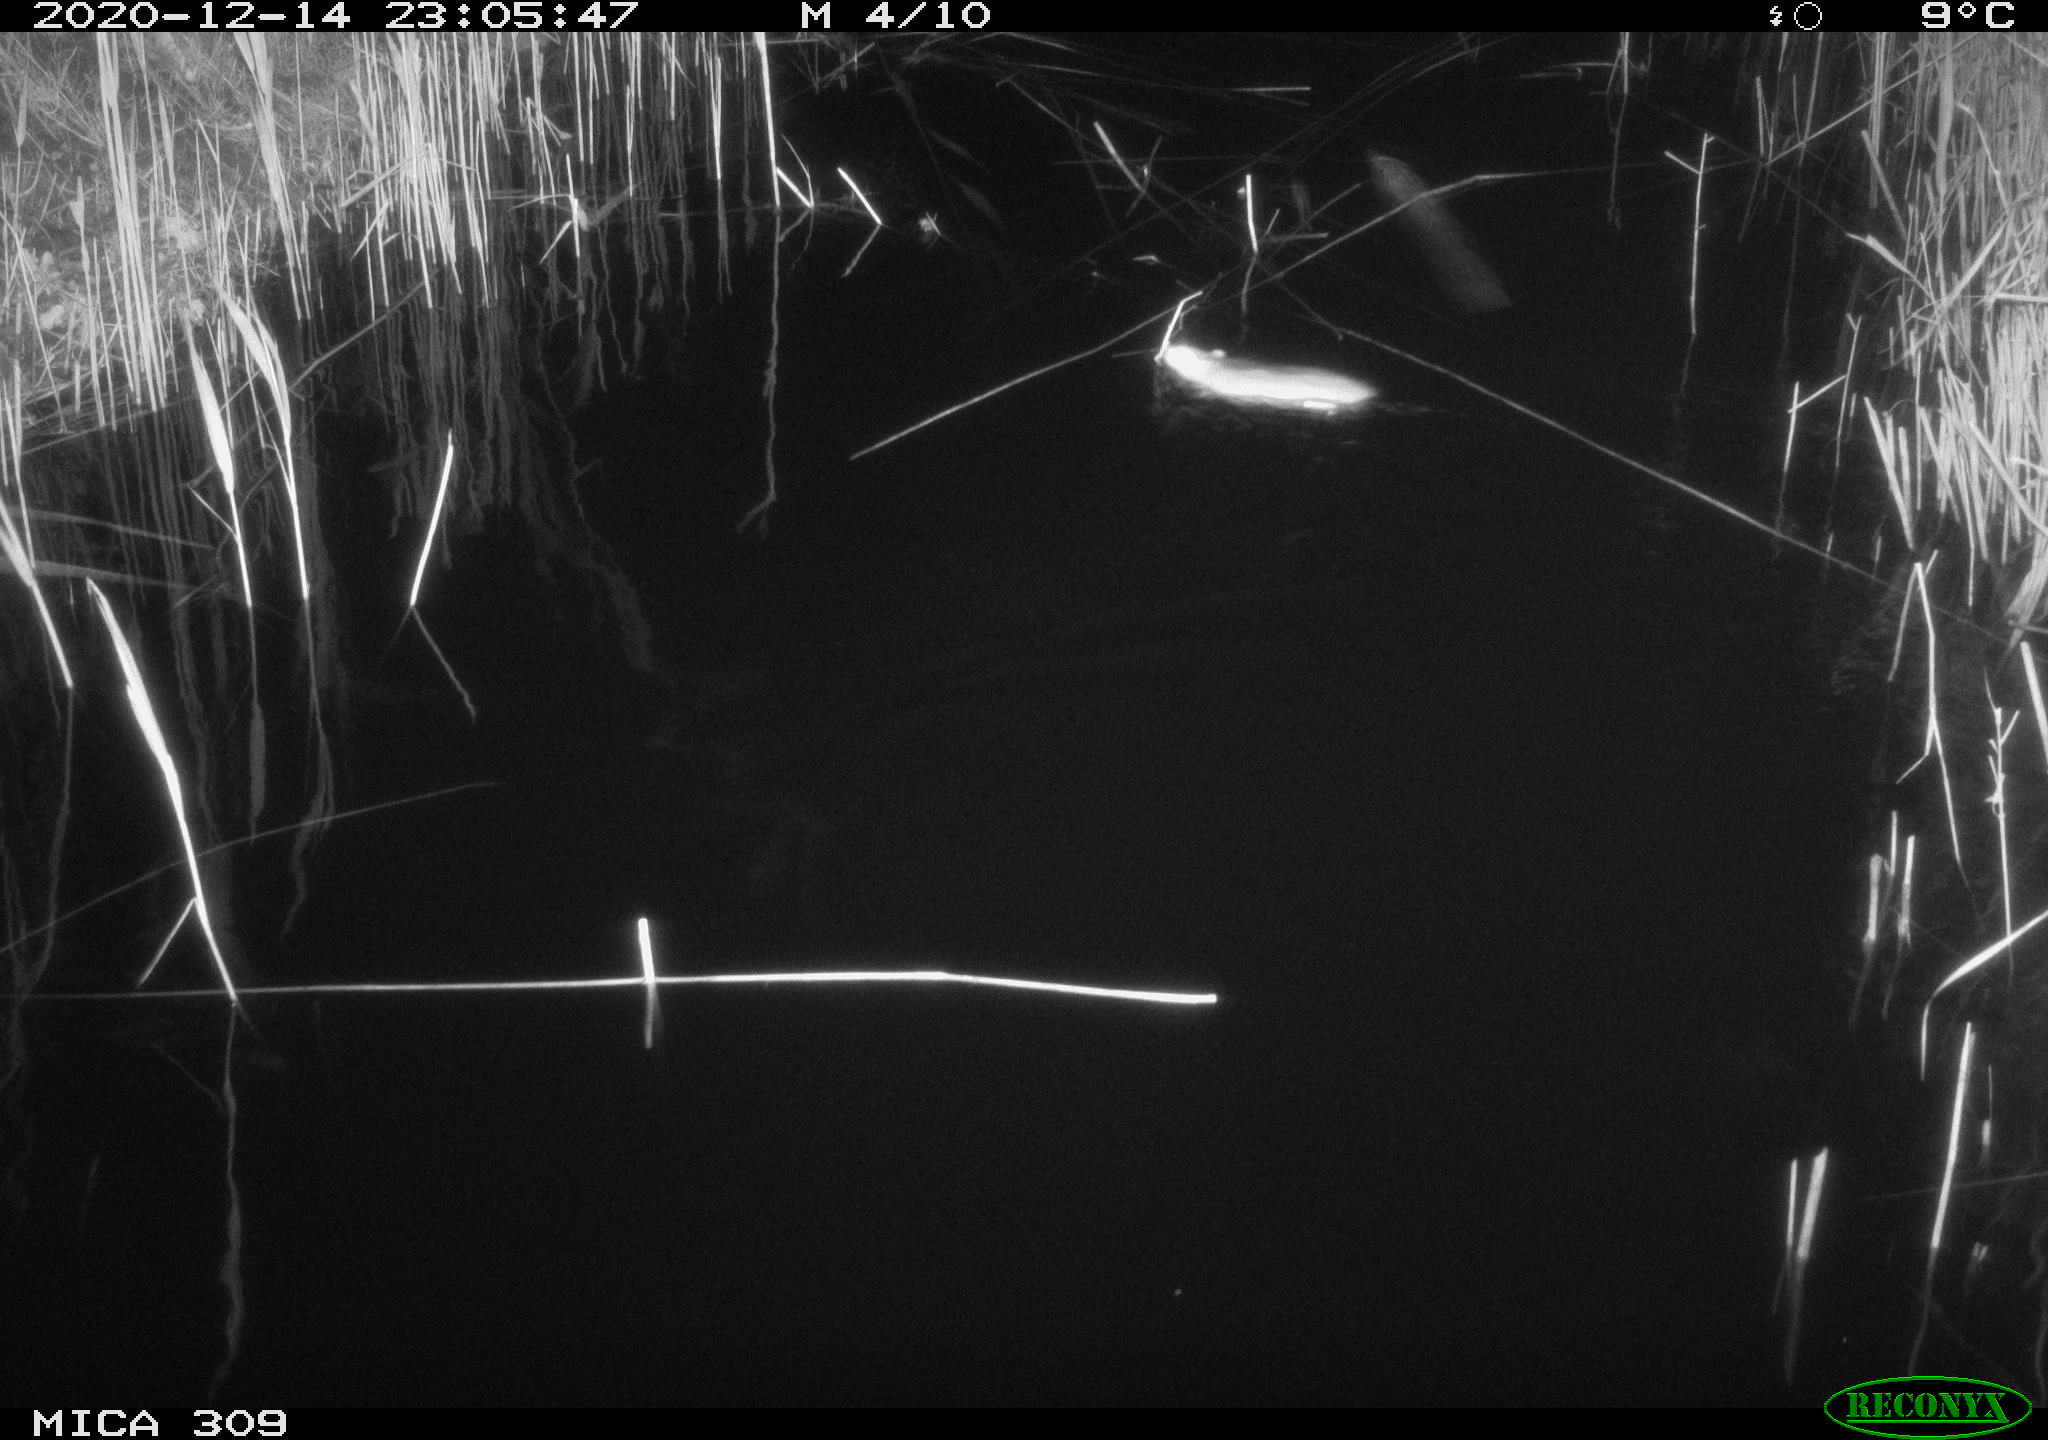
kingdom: Animalia
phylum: Chordata
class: Mammalia
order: Rodentia
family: Muridae
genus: Rattus
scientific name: Rattus norvegicus
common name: Brown rat
